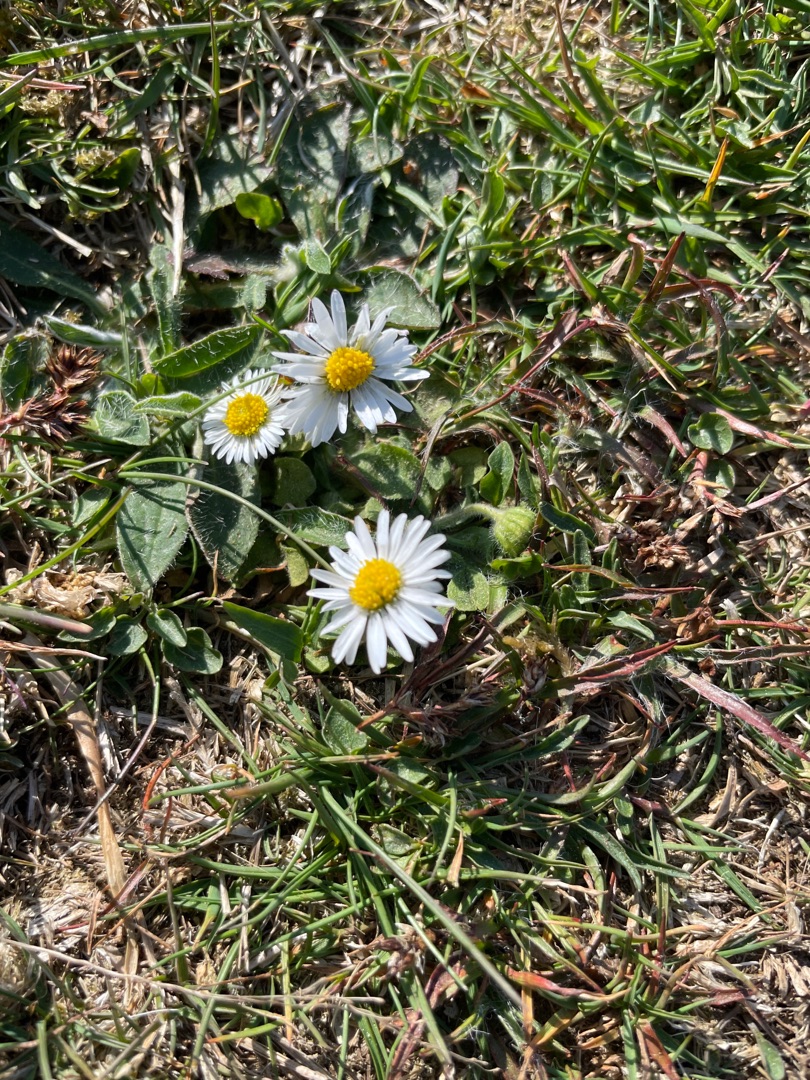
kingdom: Plantae
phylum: Tracheophyta
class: Magnoliopsida
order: Asterales
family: Asteraceae
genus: Bellis
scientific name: Bellis perennis
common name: Tusindfryd
